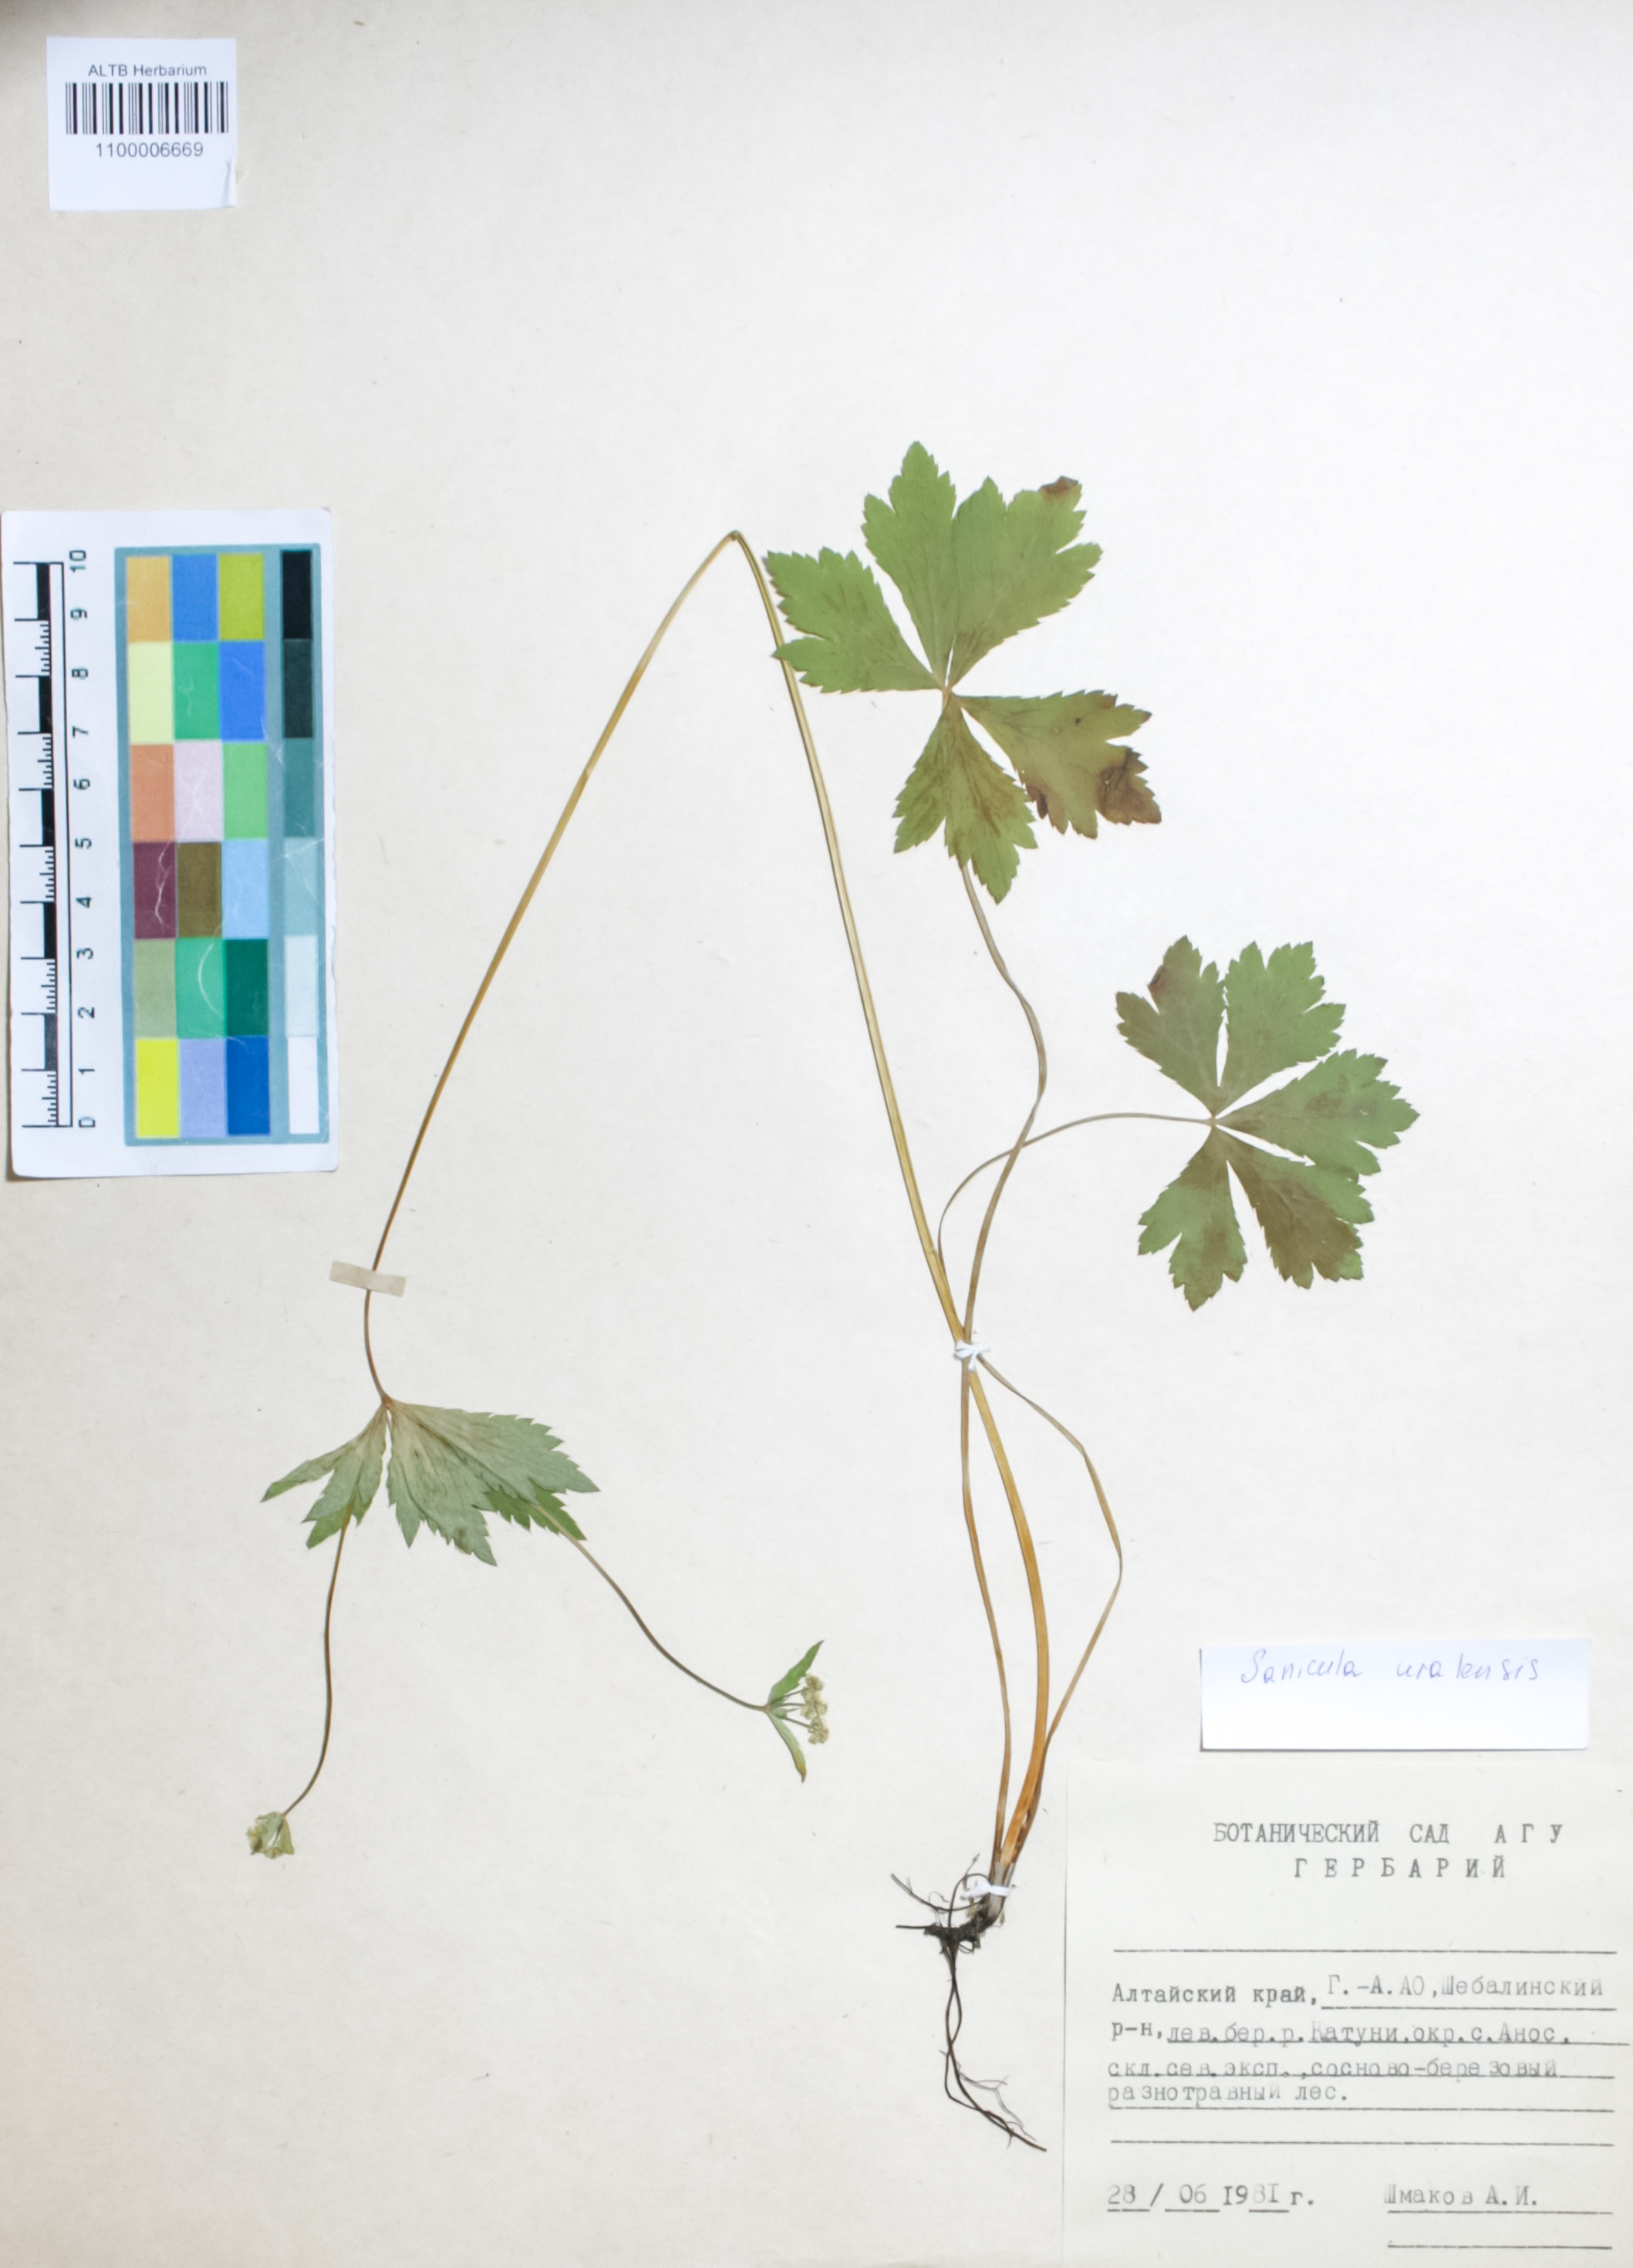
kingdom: Plantae
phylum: Tracheophyta
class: Magnoliopsida
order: Apiales
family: Apiaceae
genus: Sanicula
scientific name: Sanicula giraldii
